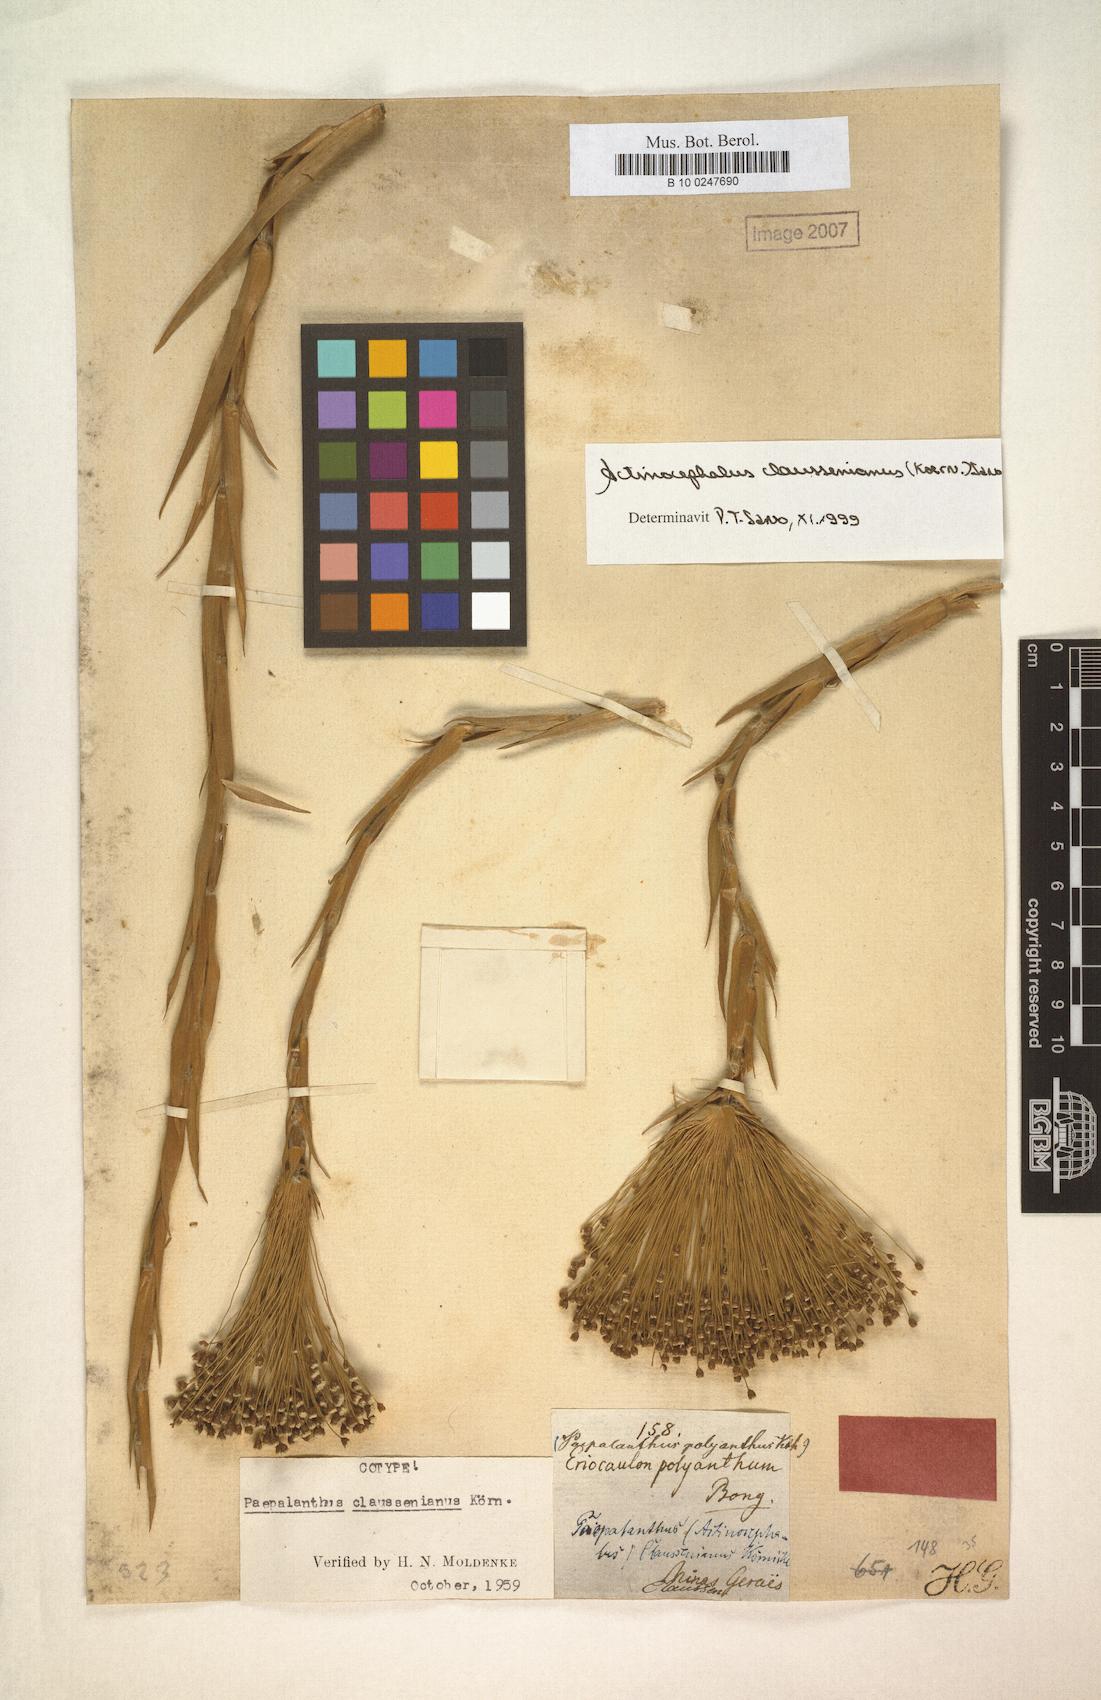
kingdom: Plantae
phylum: Tracheophyta
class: Liliopsida
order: Poales
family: Eriocaulaceae
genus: Paepalanthus
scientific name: Paepalanthus claussenianus
